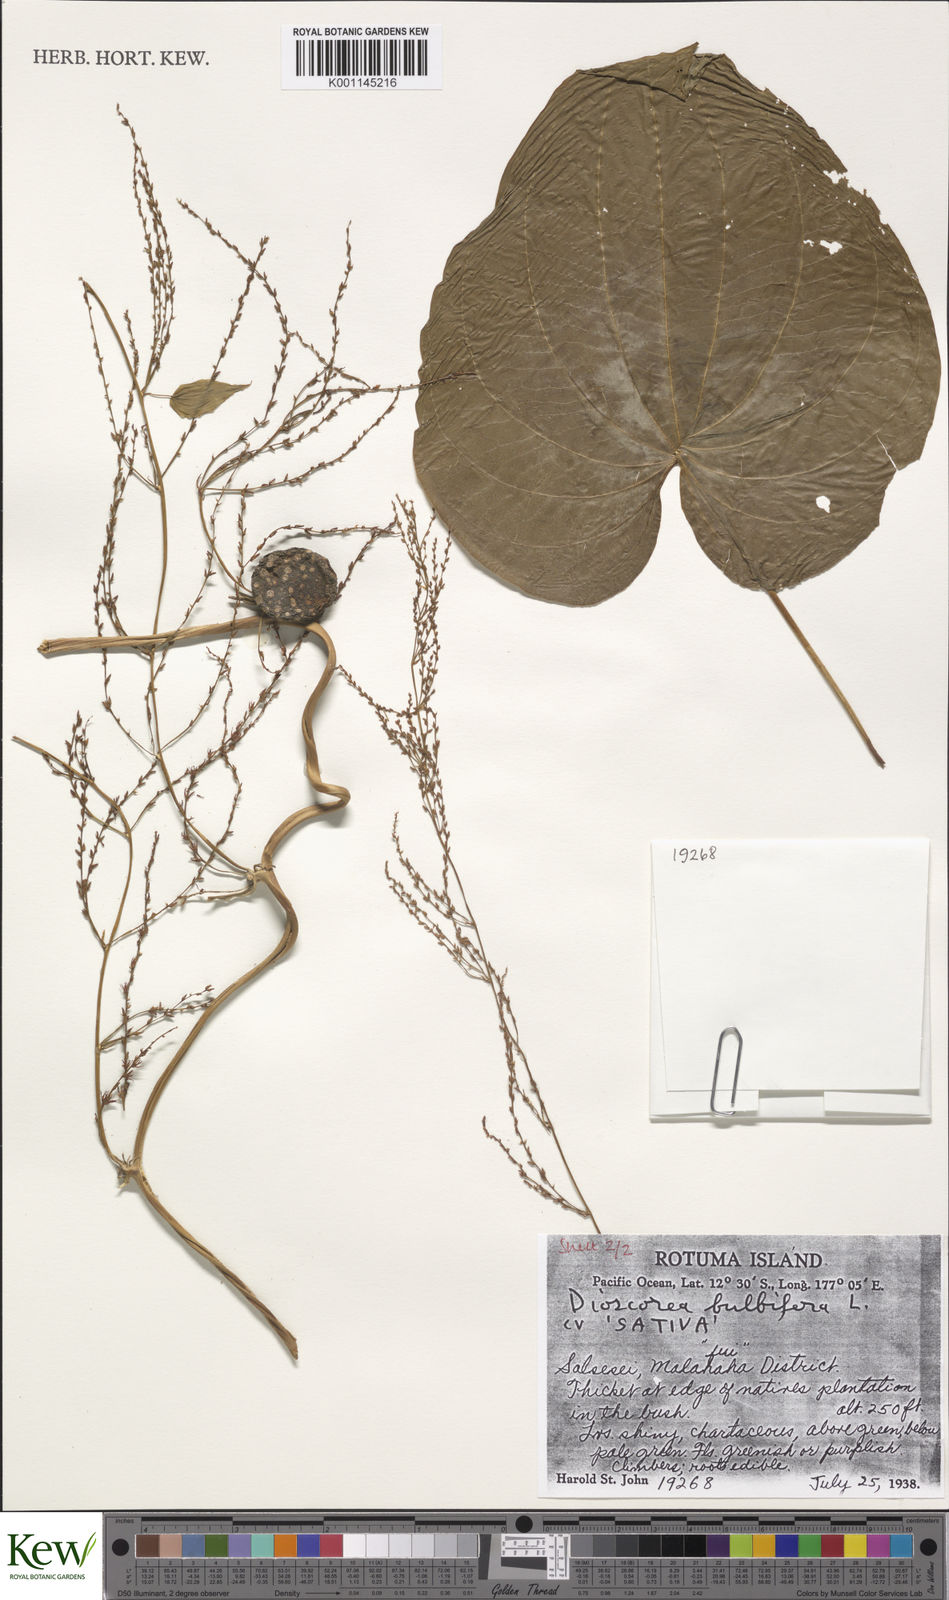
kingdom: Plantae
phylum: Tracheophyta
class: Liliopsida
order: Dioscoreales
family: Dioscoreaceae
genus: Dioscorea
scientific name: Dioscorea bulbifera
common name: Air yam
